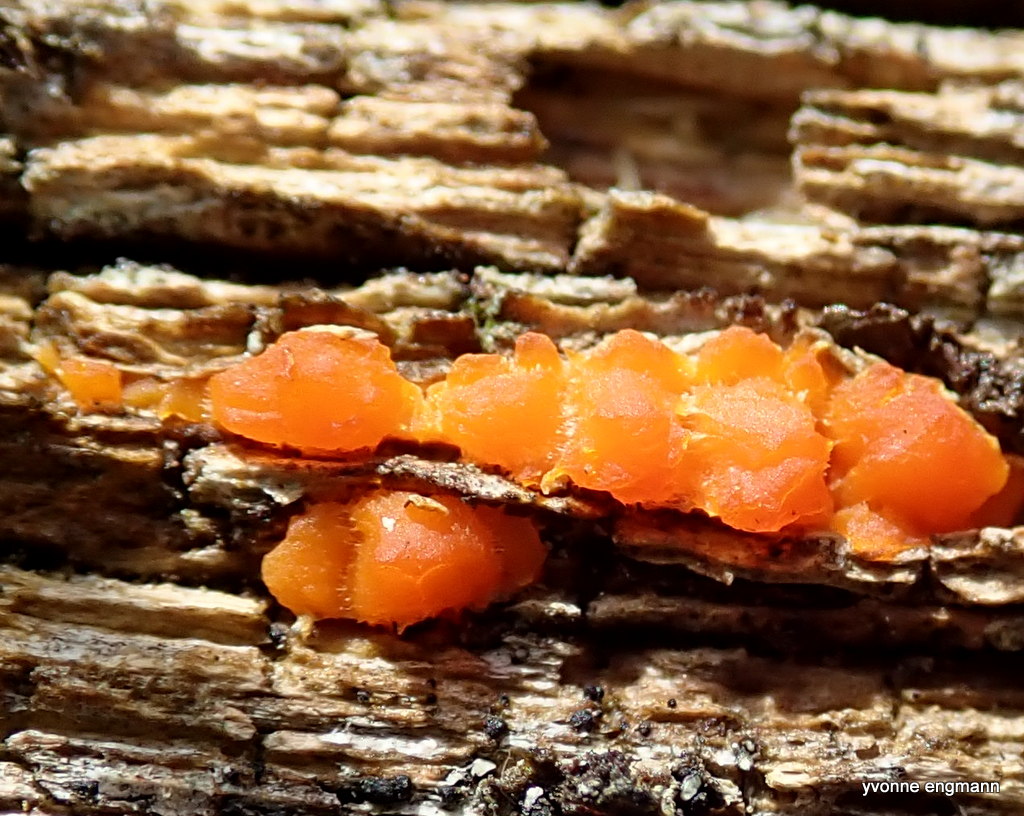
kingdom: Fungi
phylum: Basidiomycota
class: Dacrymycetes
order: Dacrymycetales
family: Dacrymycetaceae
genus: Dacrymyces
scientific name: Dacrymyces stillatus
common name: almindelig tåresvamp
